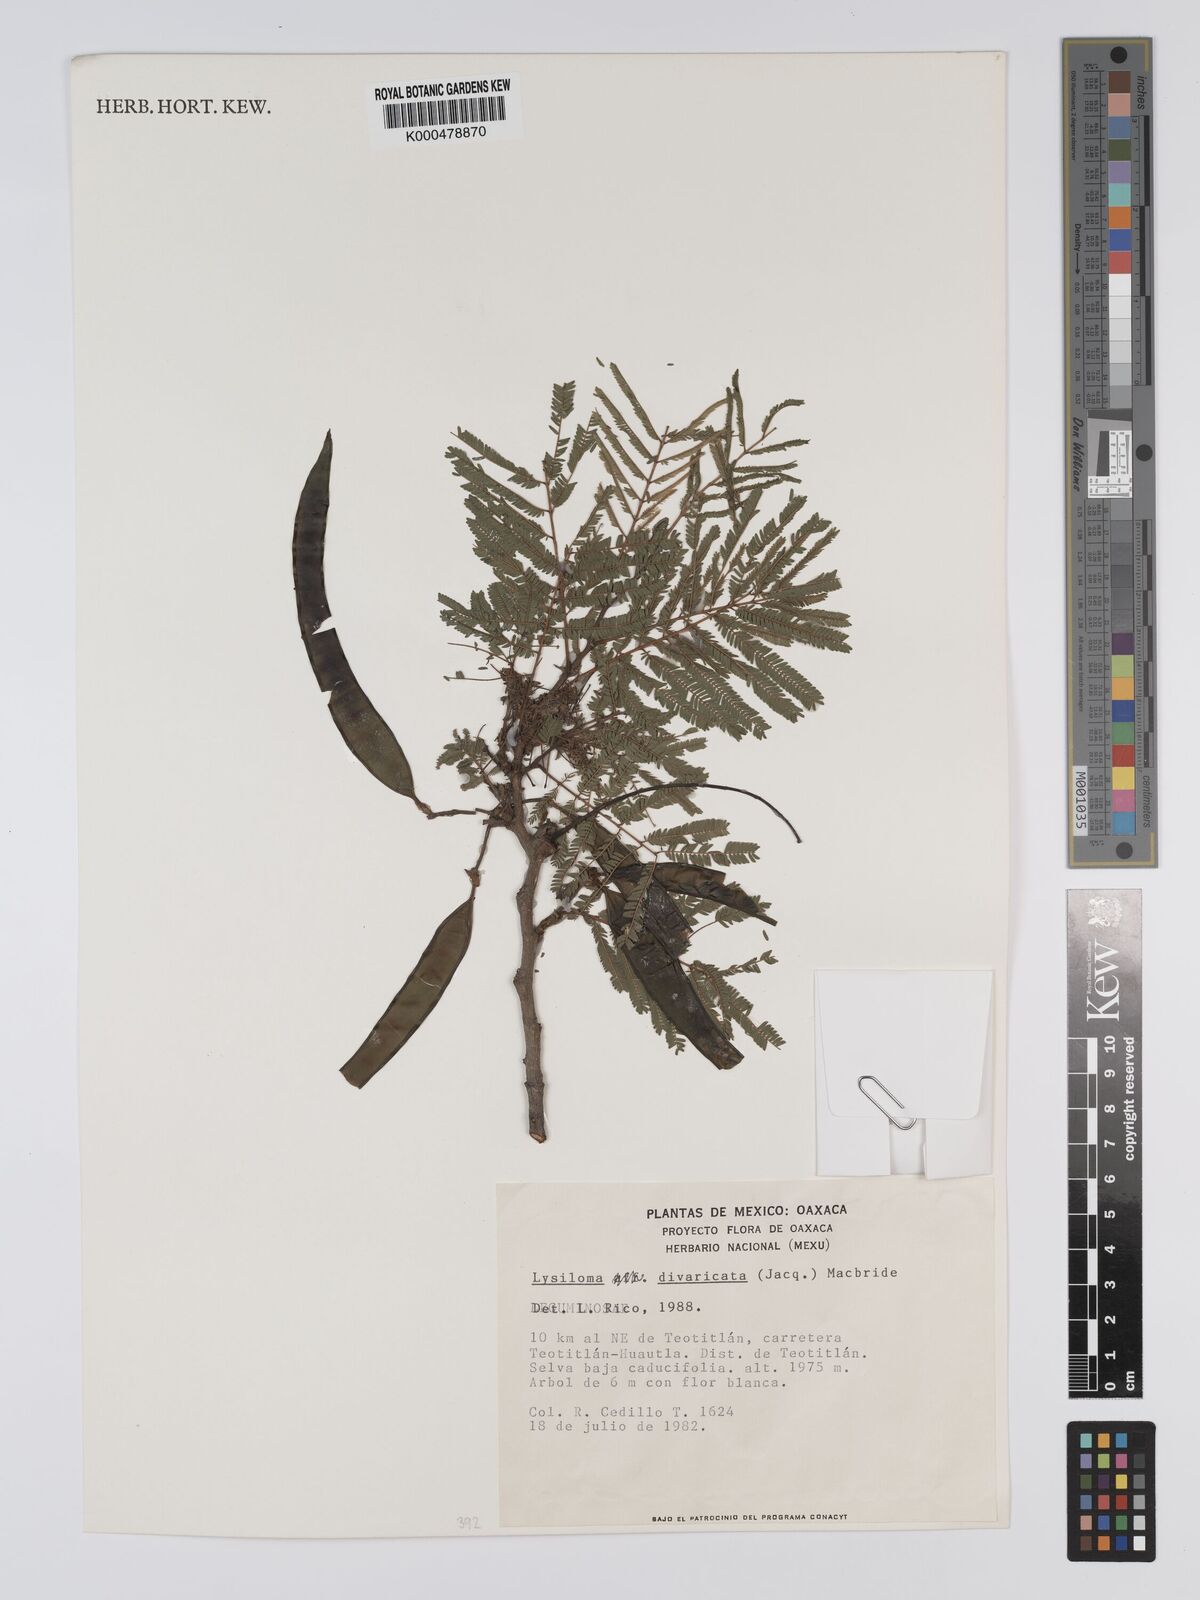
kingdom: Plantae
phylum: Tracheophyta
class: Magnoliopsida
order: Fabales
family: Fabaceae
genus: Lysiloma
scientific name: Lysiloma divaricatum
